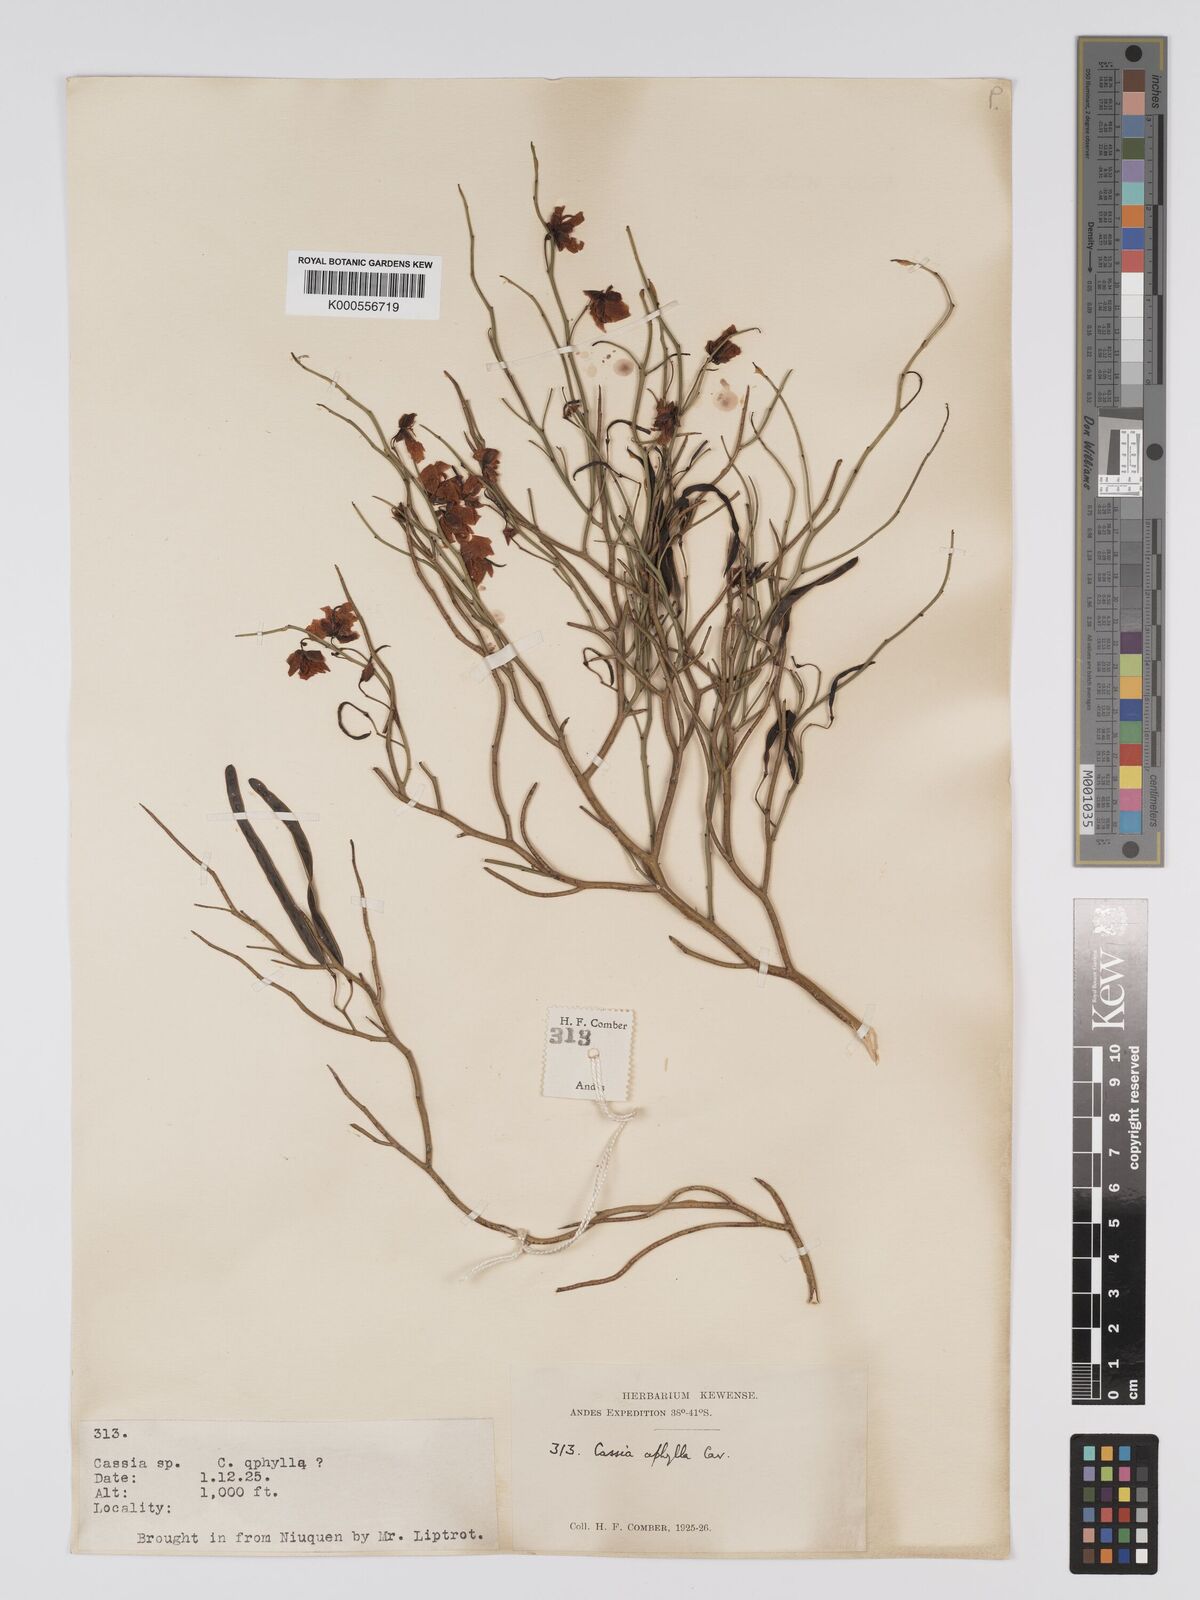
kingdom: Plantae
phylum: Tracheophyta
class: Magnoliopsida
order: Fabales
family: Fabaceae
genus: Senna
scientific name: Senna aphylla
